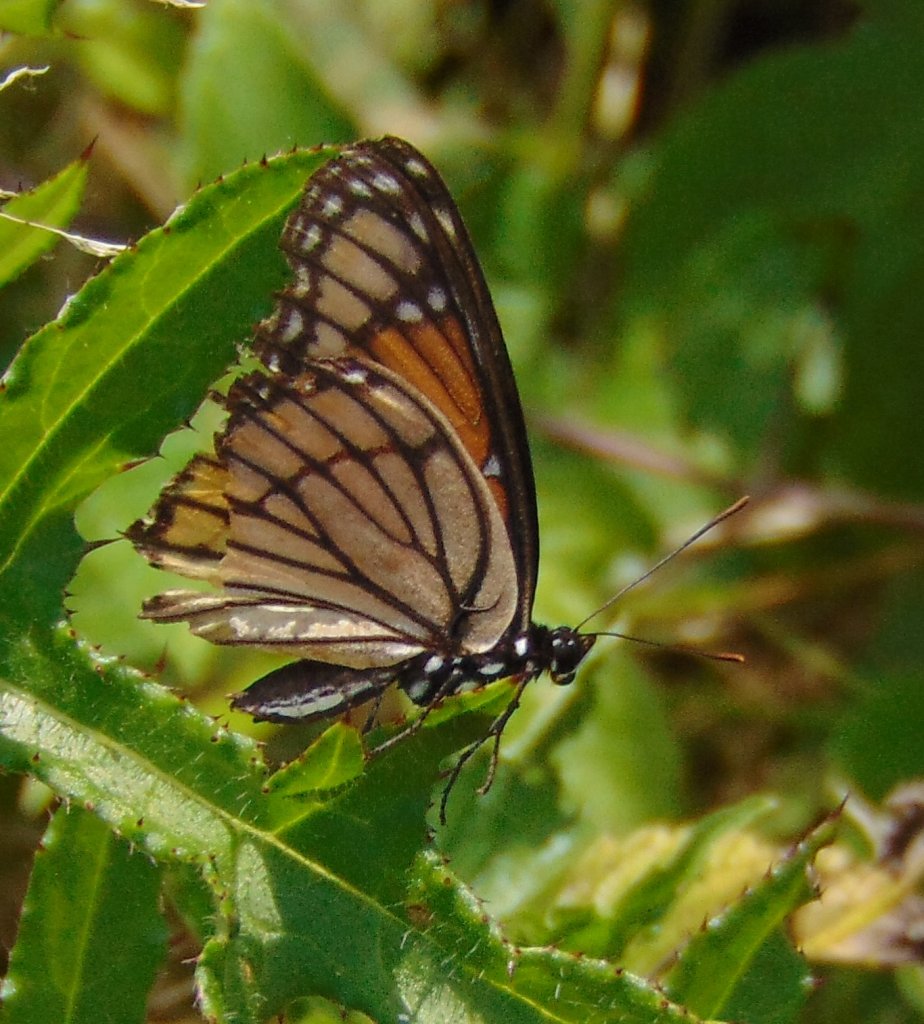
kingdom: Animalia
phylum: Arthropoda
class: Insecta
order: Lepidoptera
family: Nymphalidae
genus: Limenitis
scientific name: Limenitis archippus
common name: Viceroy
